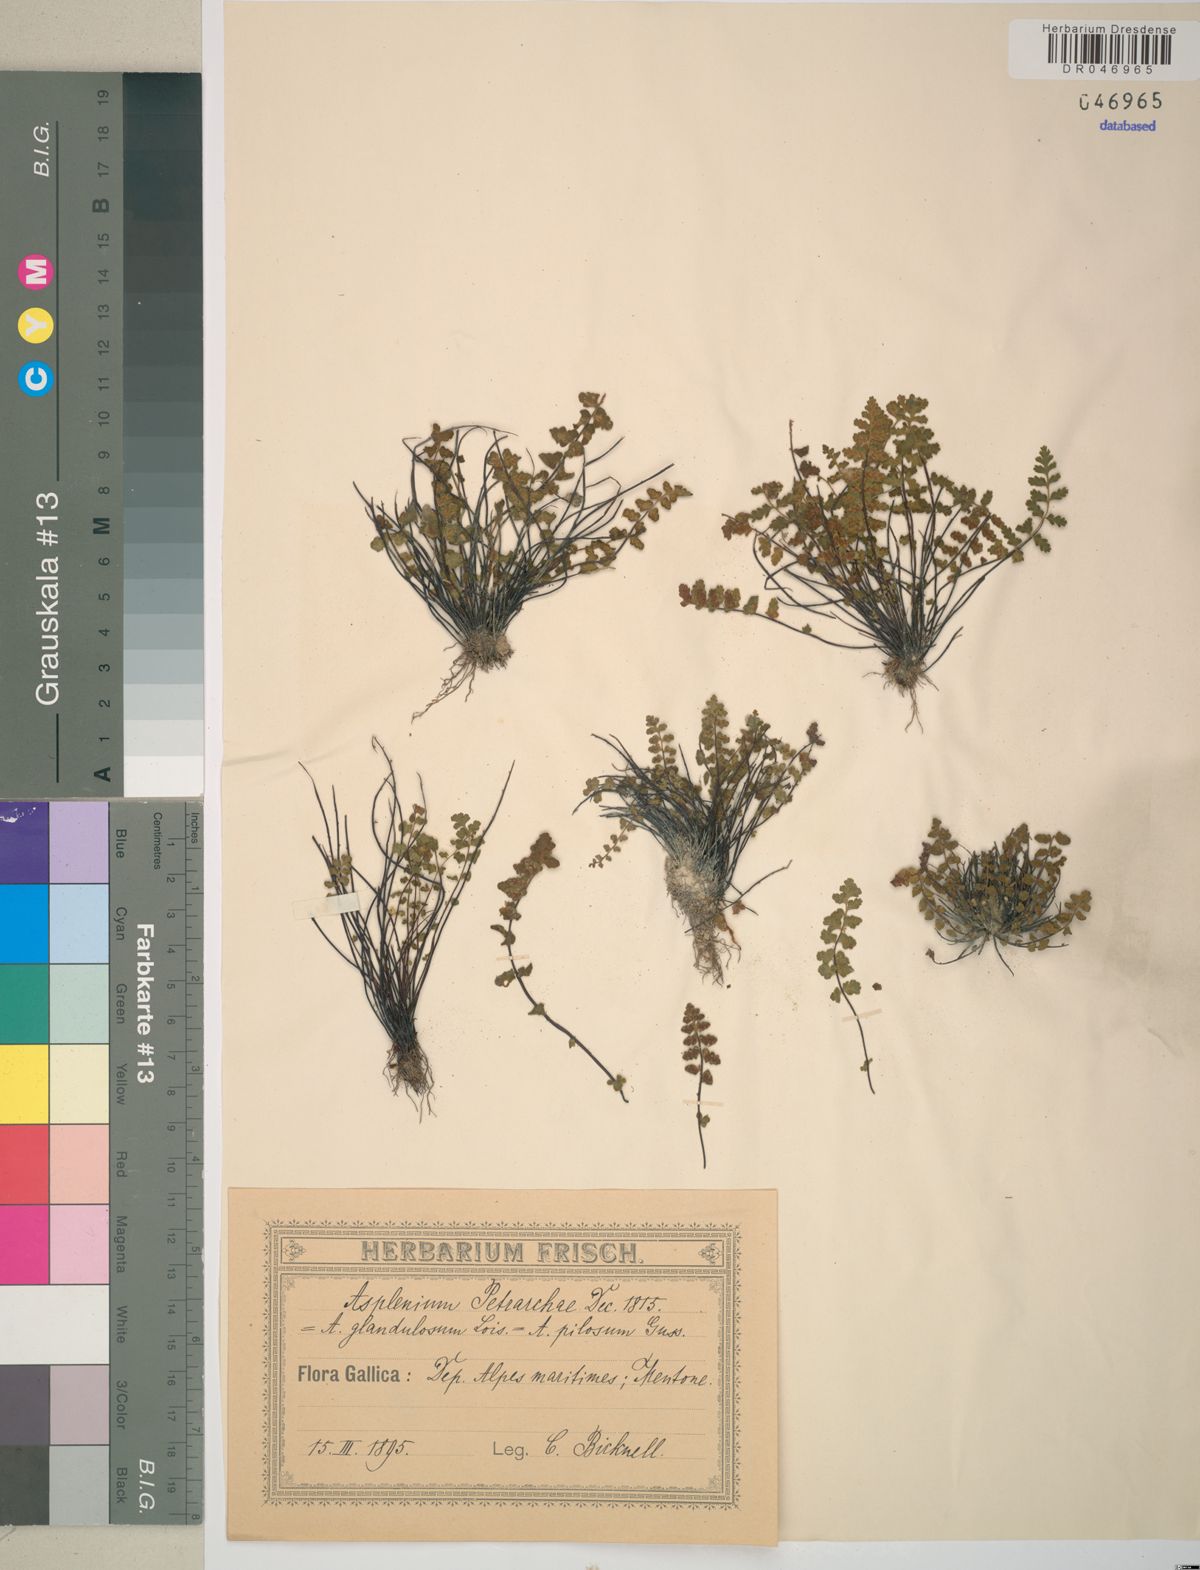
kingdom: Plantae
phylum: Tracheophyta
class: Polypodiopsida
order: Polypodiales
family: Aspleniaceae
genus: Asplenium
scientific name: Asplenium petrarchae
